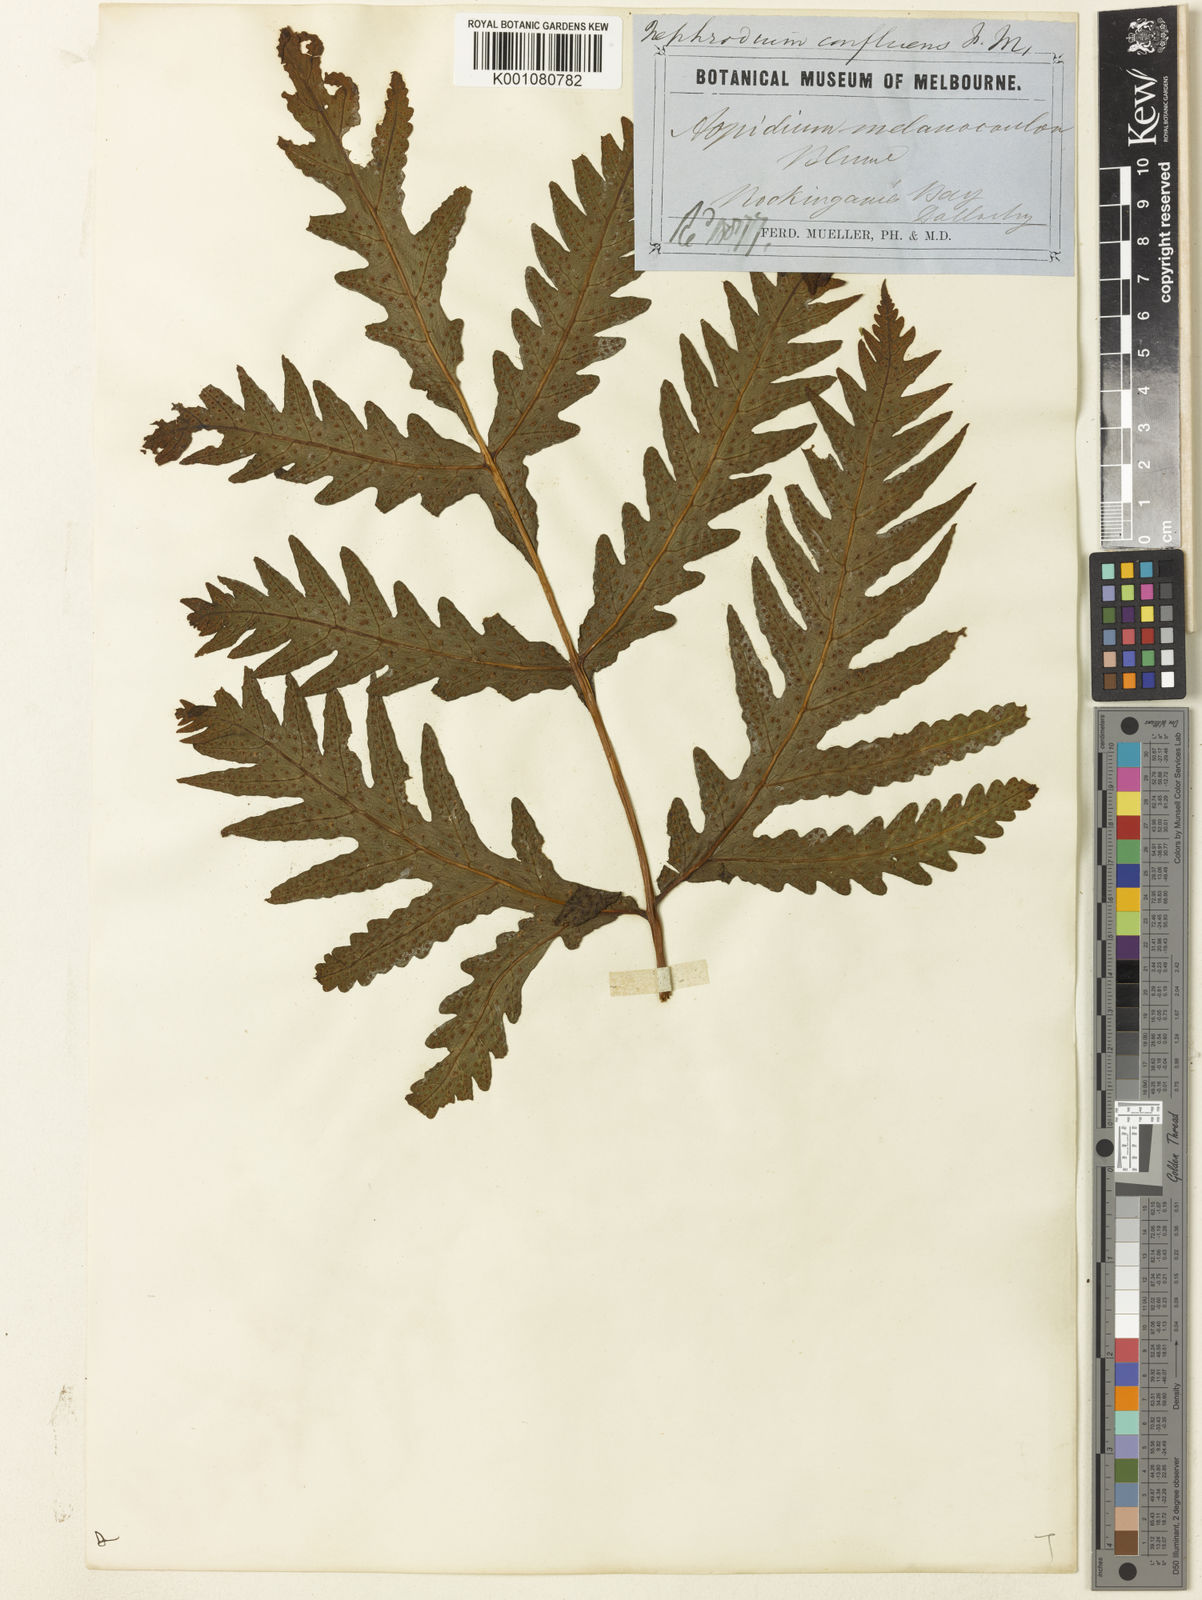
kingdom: Plantae
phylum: Tracheophyta
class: Polypodiopsida
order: Polypodiales
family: Tectariaceae
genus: Tectaria
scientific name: Tectaria confluens
